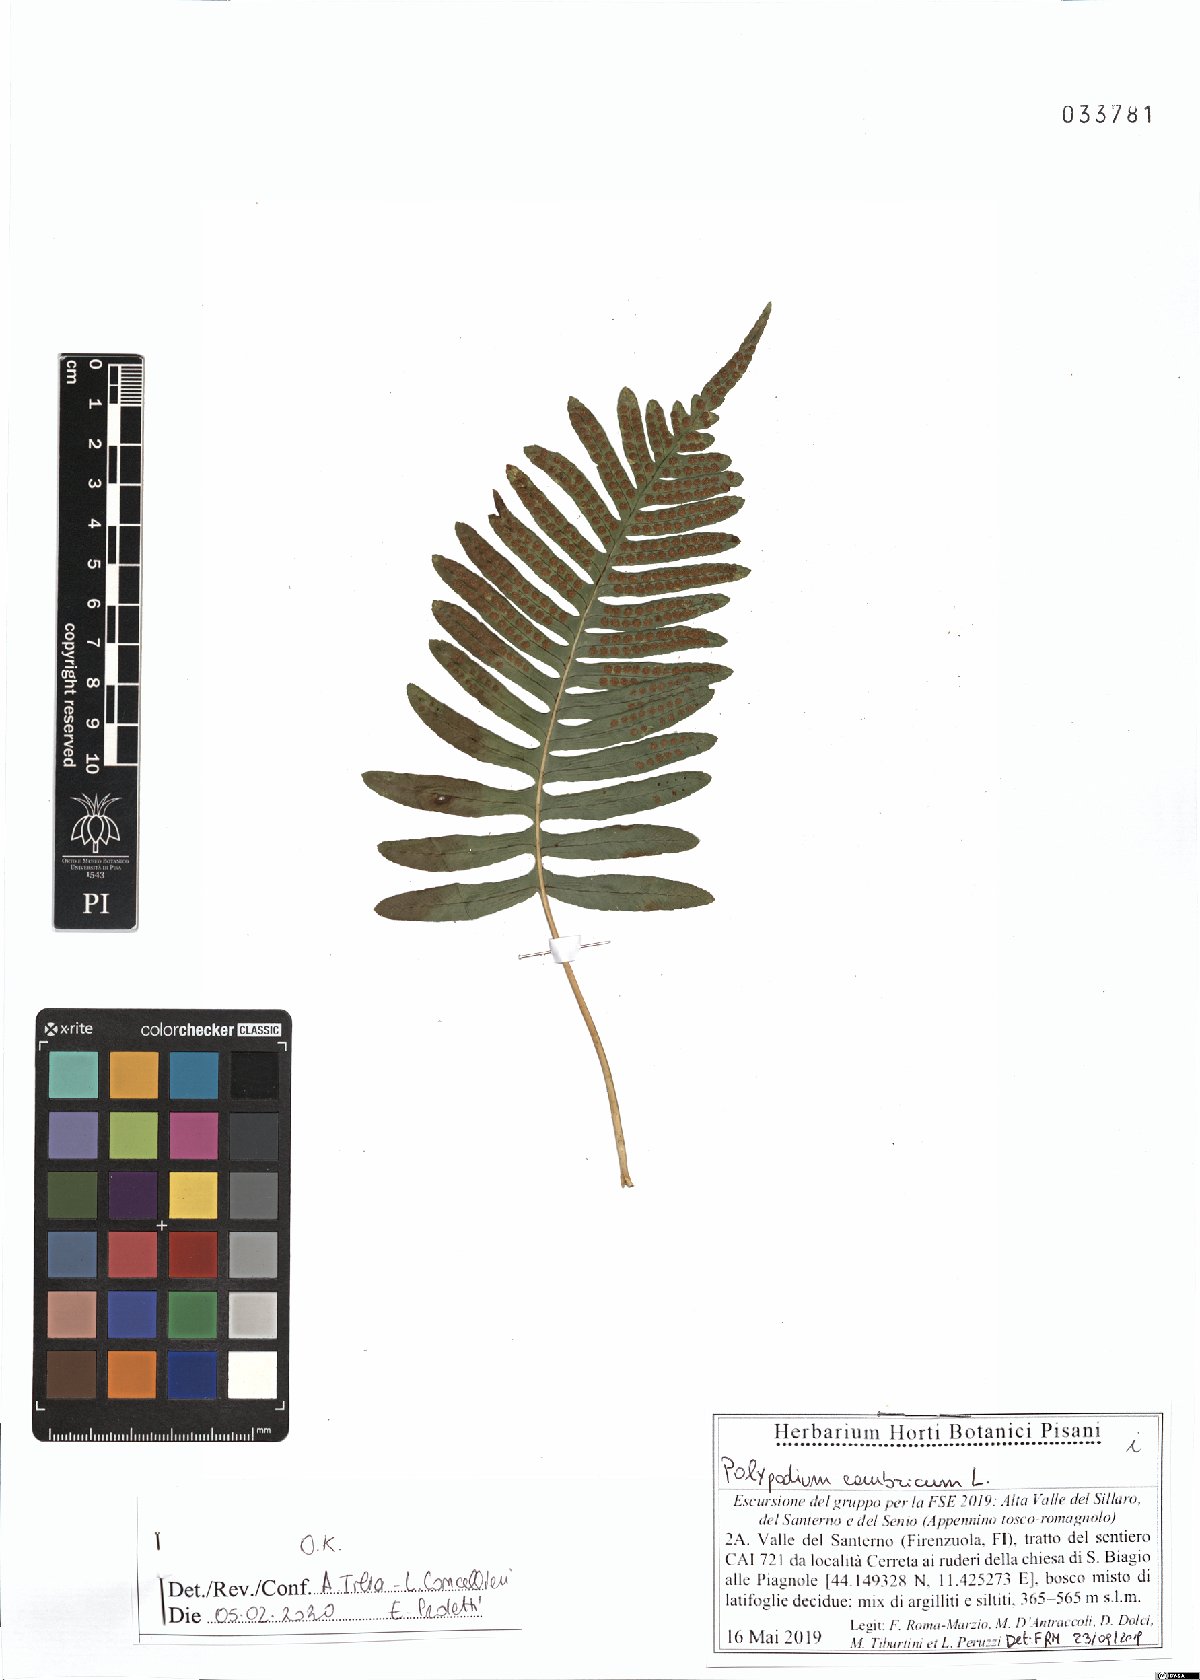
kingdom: Plantae
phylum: Tracheophyta
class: Polypodiopsida
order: Polypodiales
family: Polypodiaceae
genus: Polypodium
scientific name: Polypodium cambricum
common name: Southern polypody
